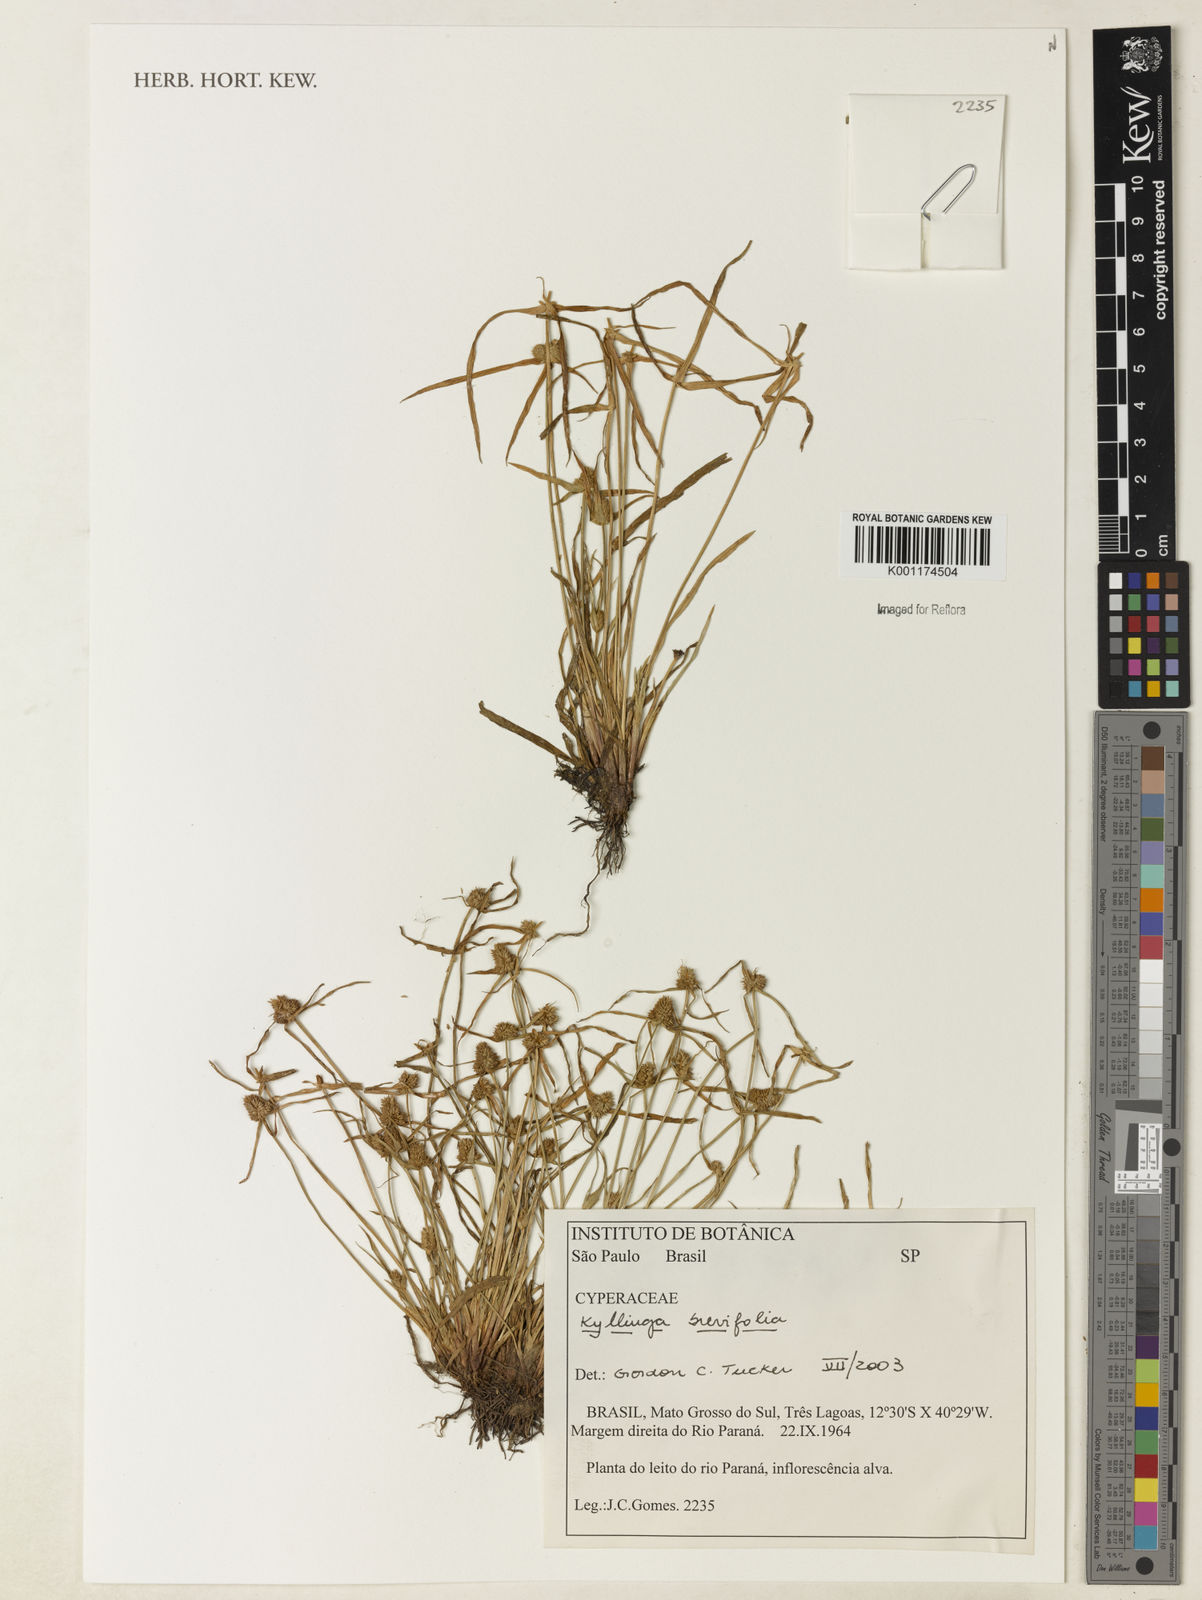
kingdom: Plantae
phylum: Tracheophyta
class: Liliopsida
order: Poales
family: Cyperaceae
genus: Cyperus
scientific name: Cyperus brevifolius
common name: Globe kyllinga
